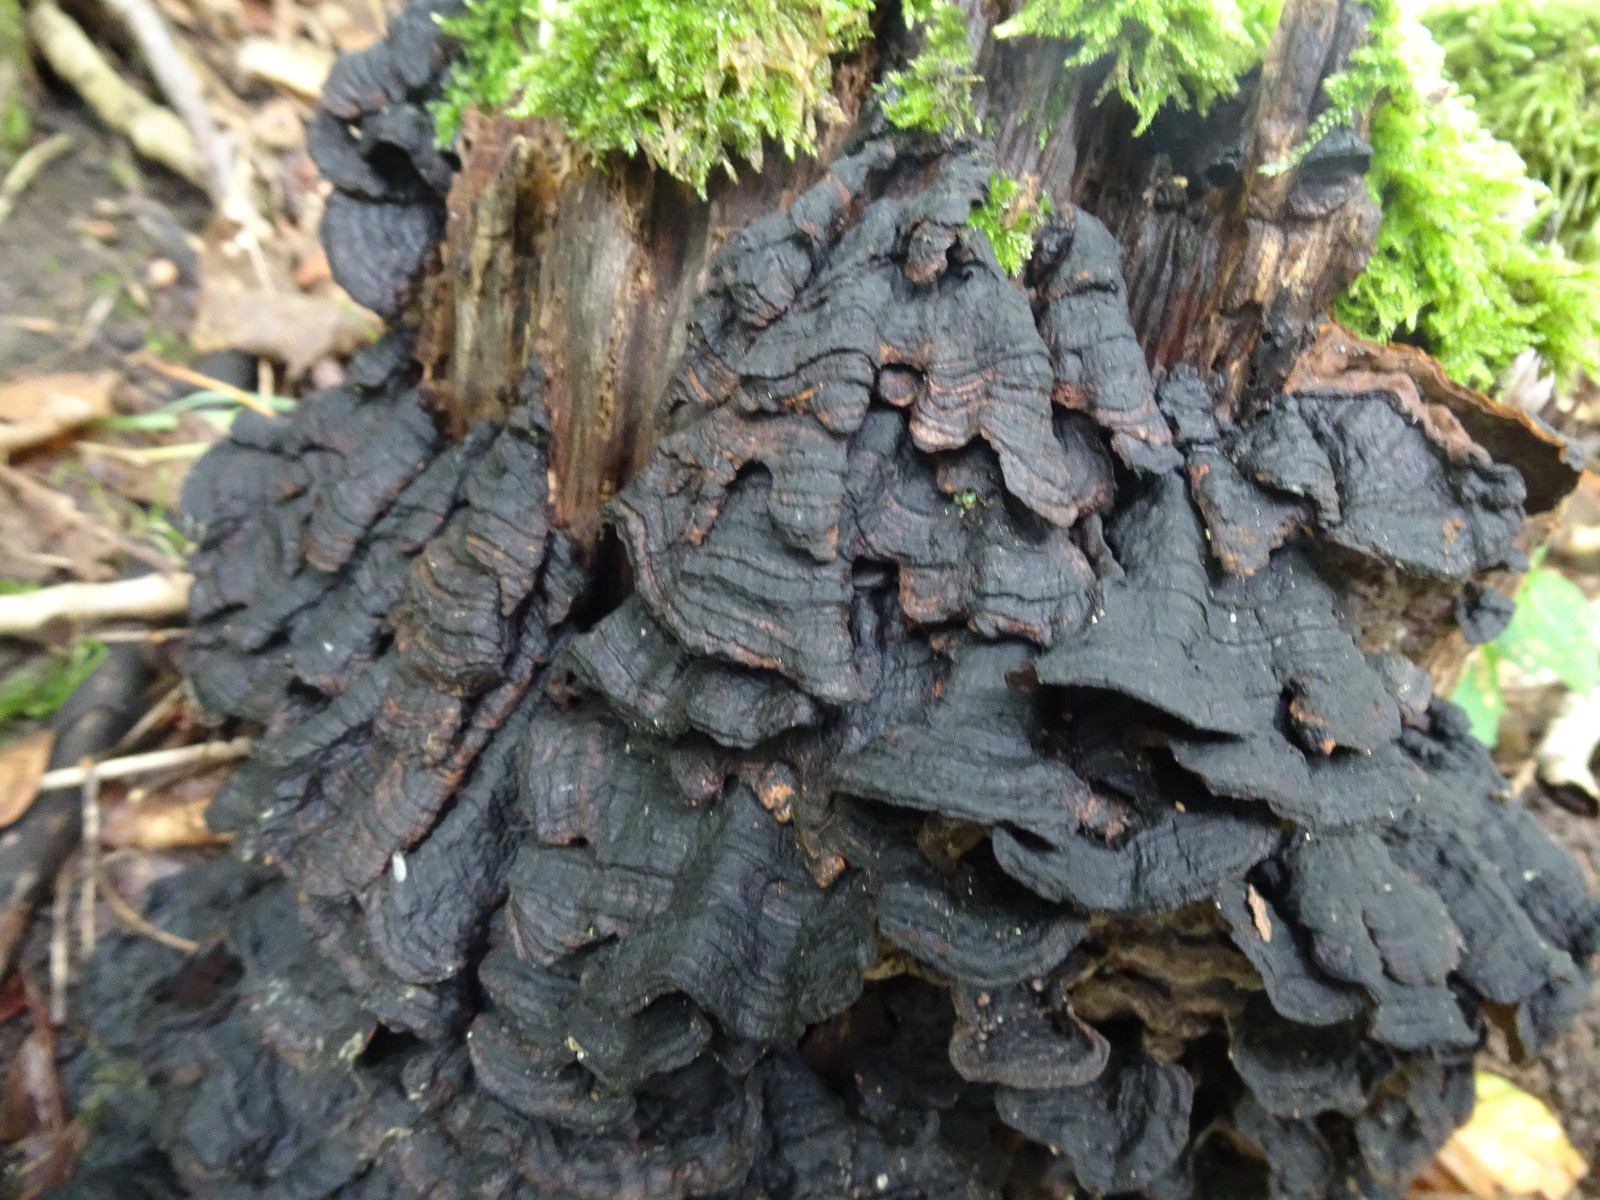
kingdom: Fungi
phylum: Basidiomycota
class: Agaricomycetes
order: Hymenochaetales
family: Hymenochaetaceae
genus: Hymenochaete
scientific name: Hymenochaete rubiginosa
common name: stiv ruslædersvamp
